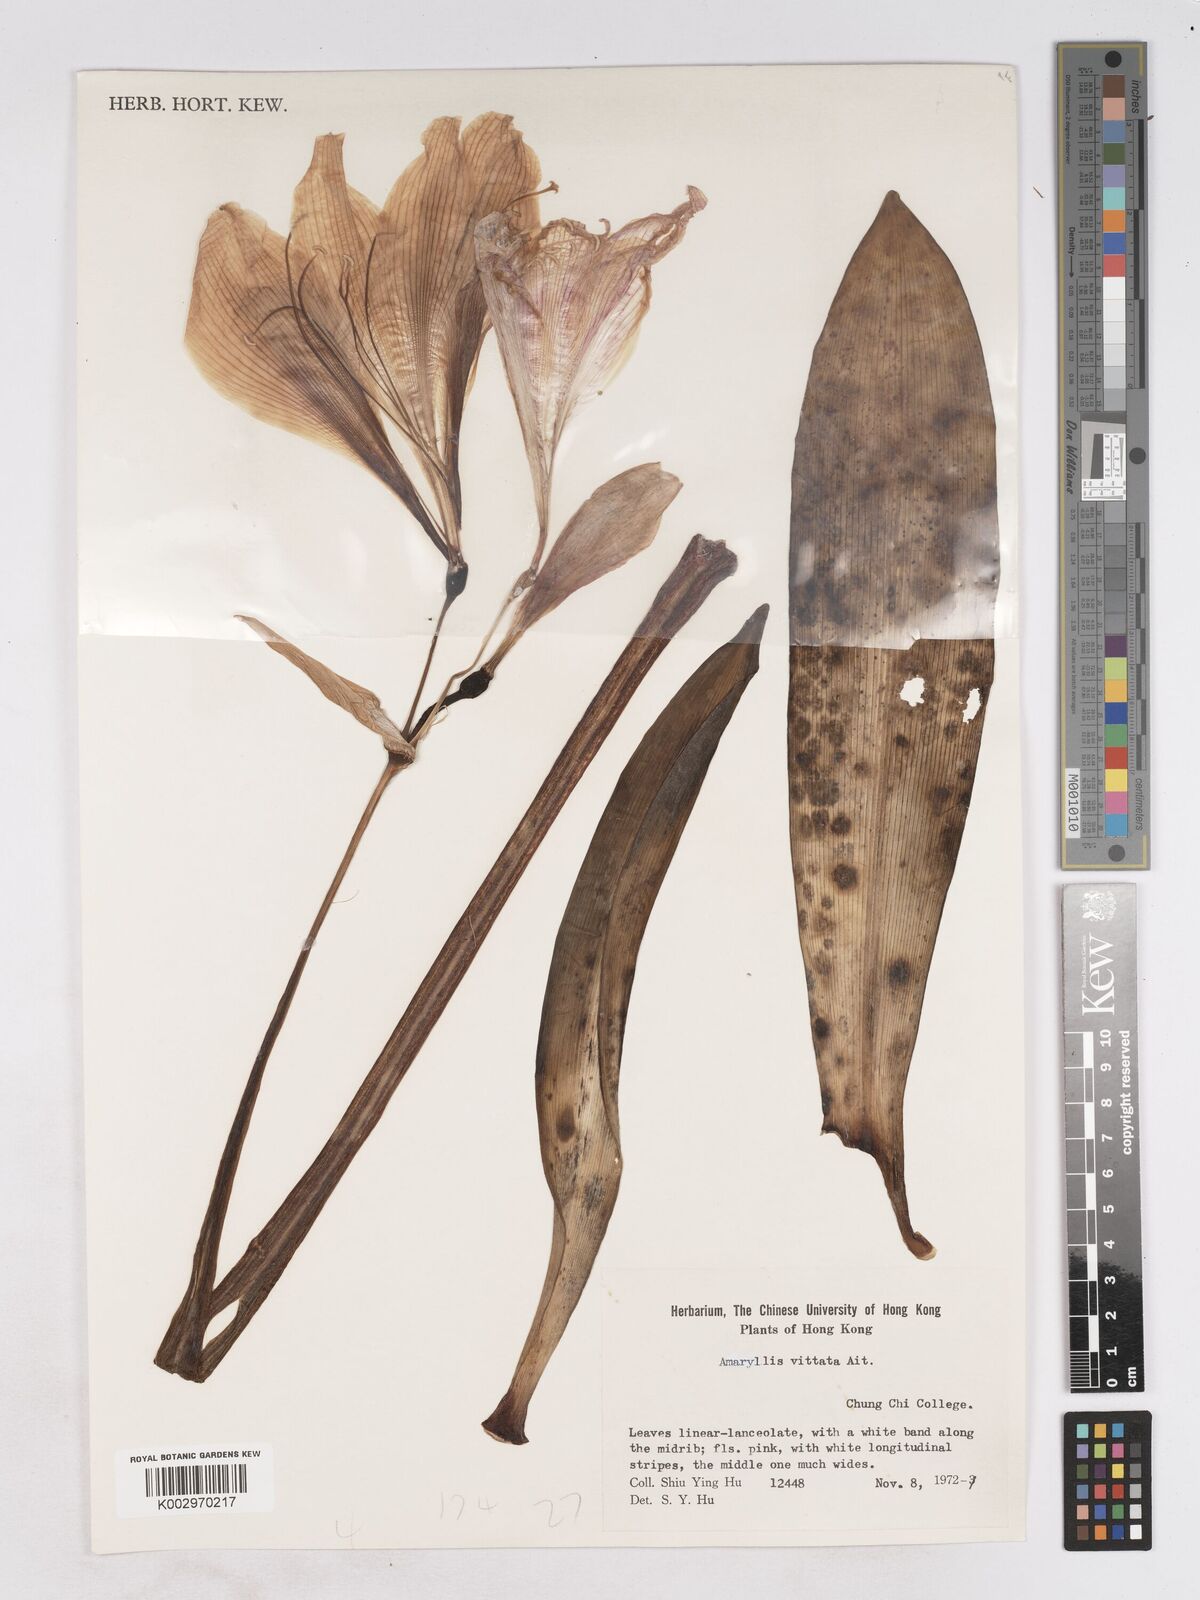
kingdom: Plantae
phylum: Tracheophyta
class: Liliopsida
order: Asparagales
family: Amaryllidaceae
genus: Hippeastrum
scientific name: Hippeastrum
